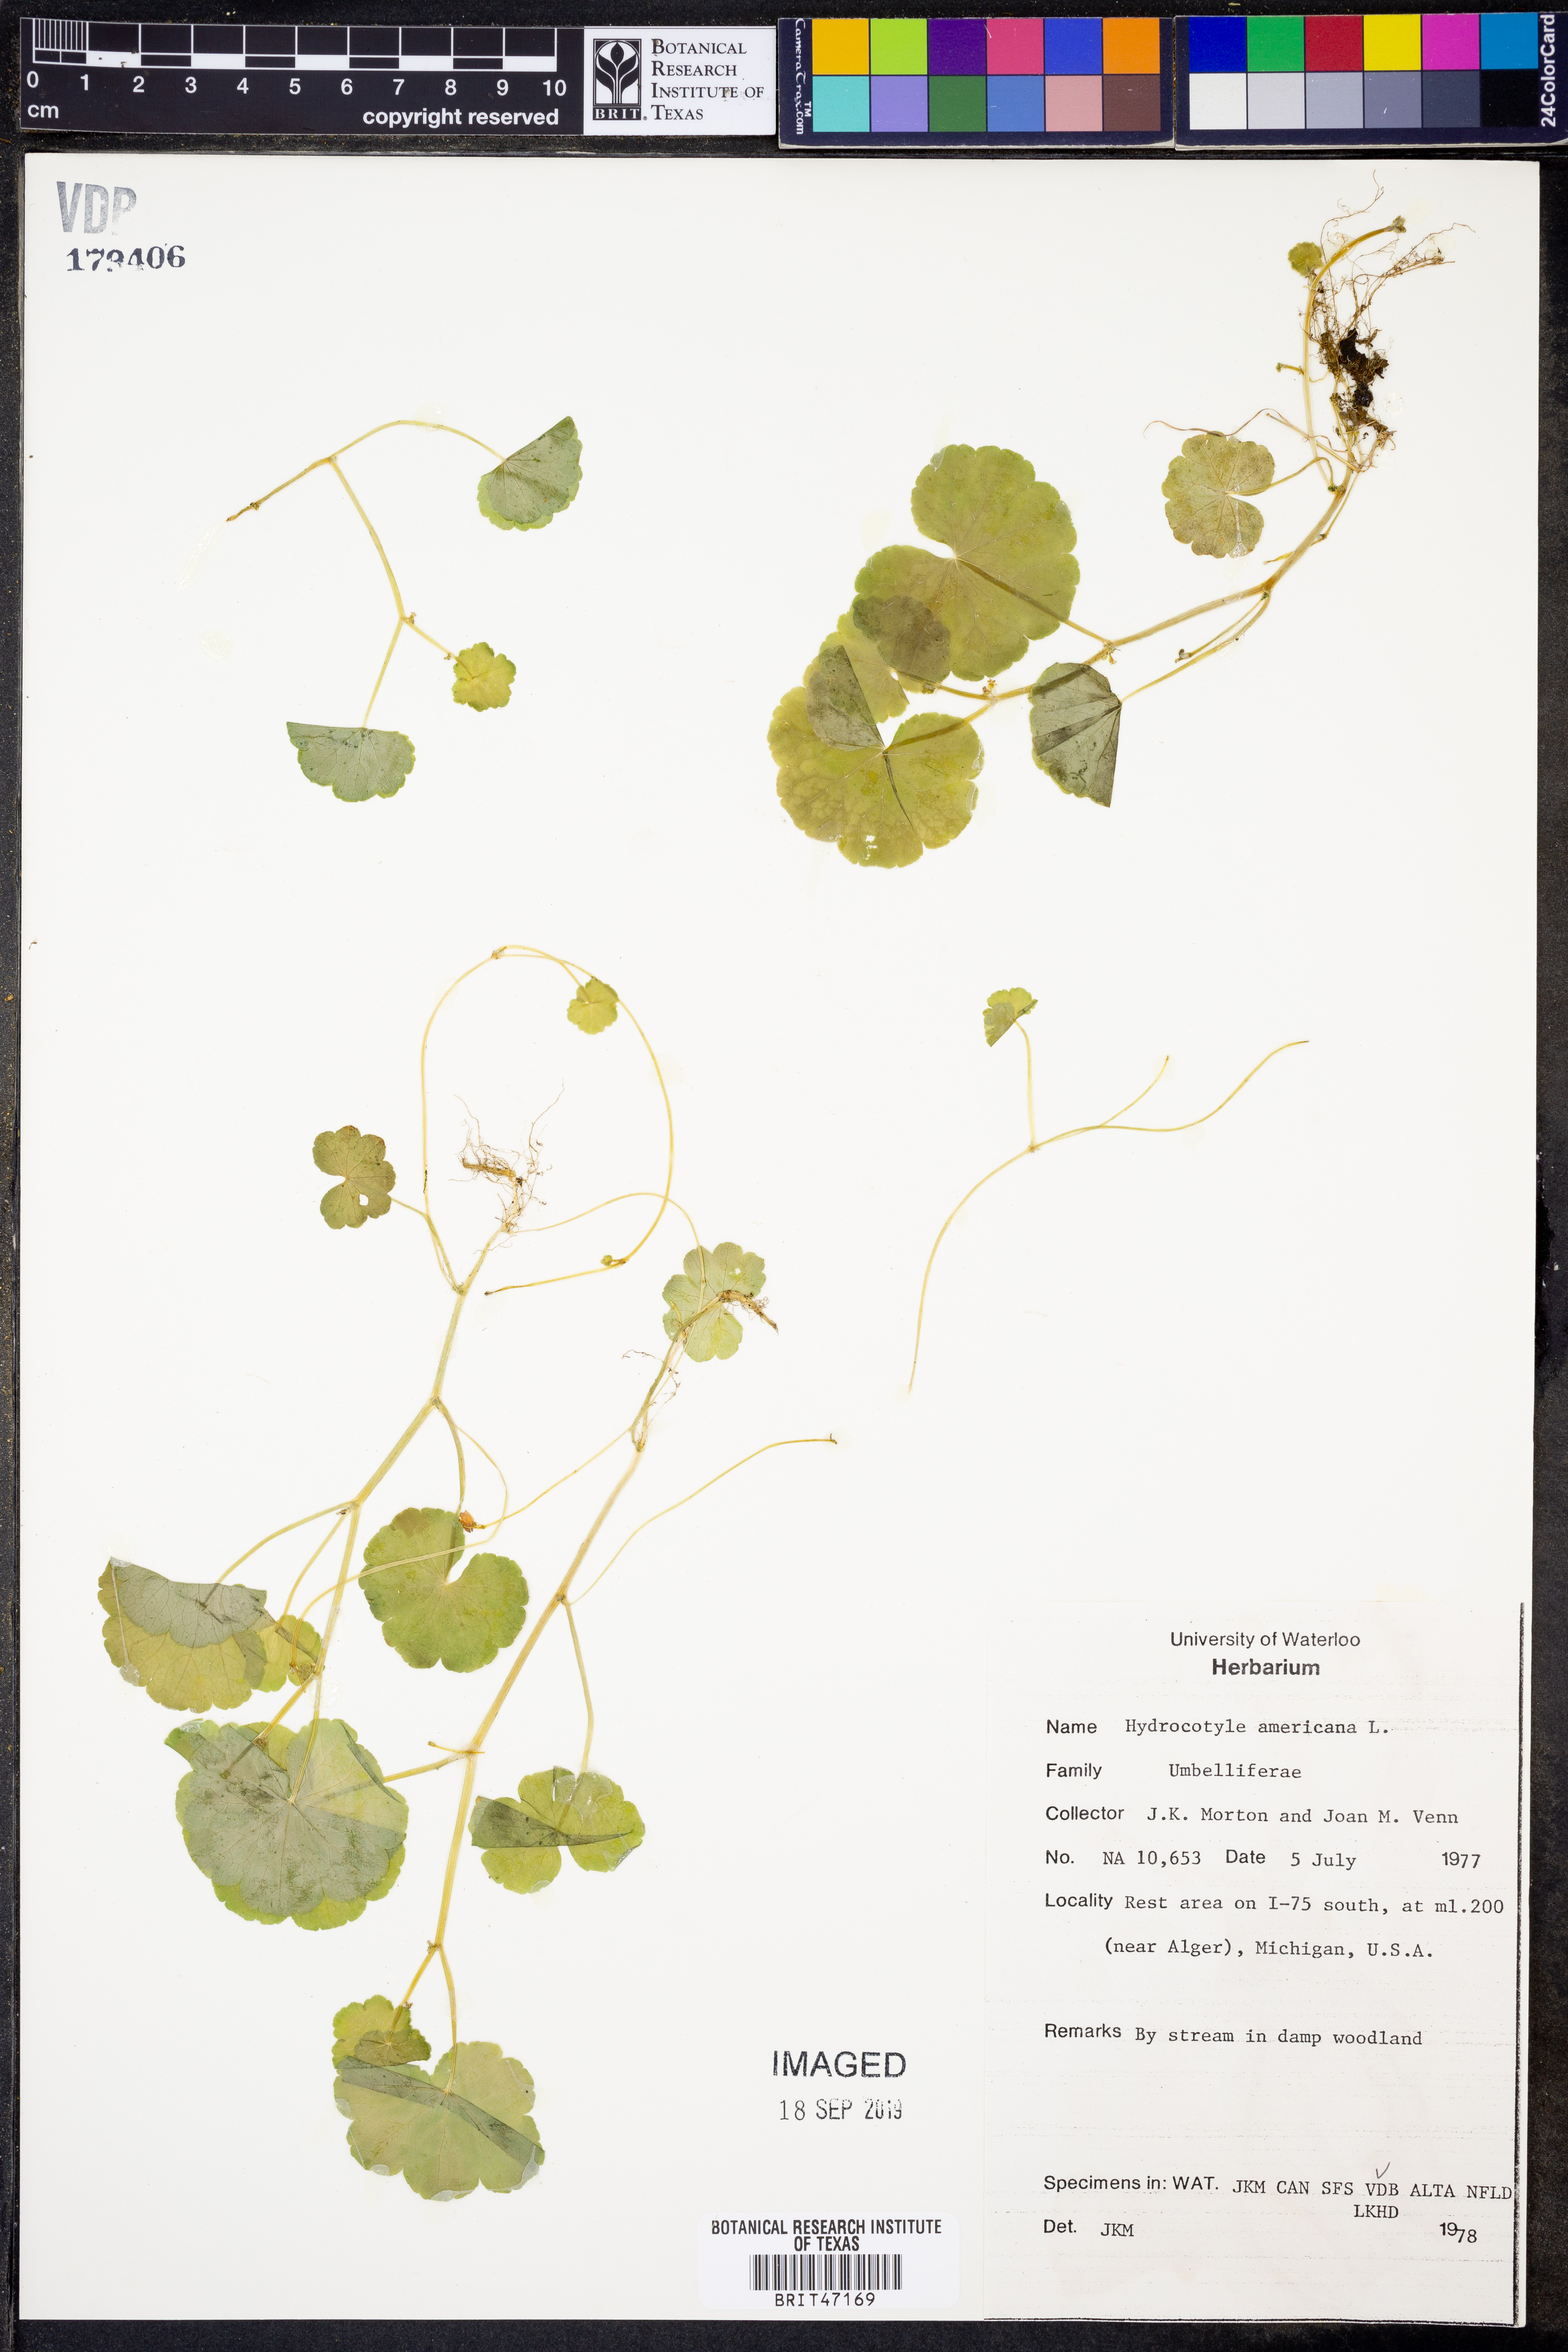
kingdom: Plantae
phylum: Tracheophyta
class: Magnoliopsida
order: Apiales
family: Araliaceae
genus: Hydrocotyle
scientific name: Hydrocotyle americana
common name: American water-pennywort
